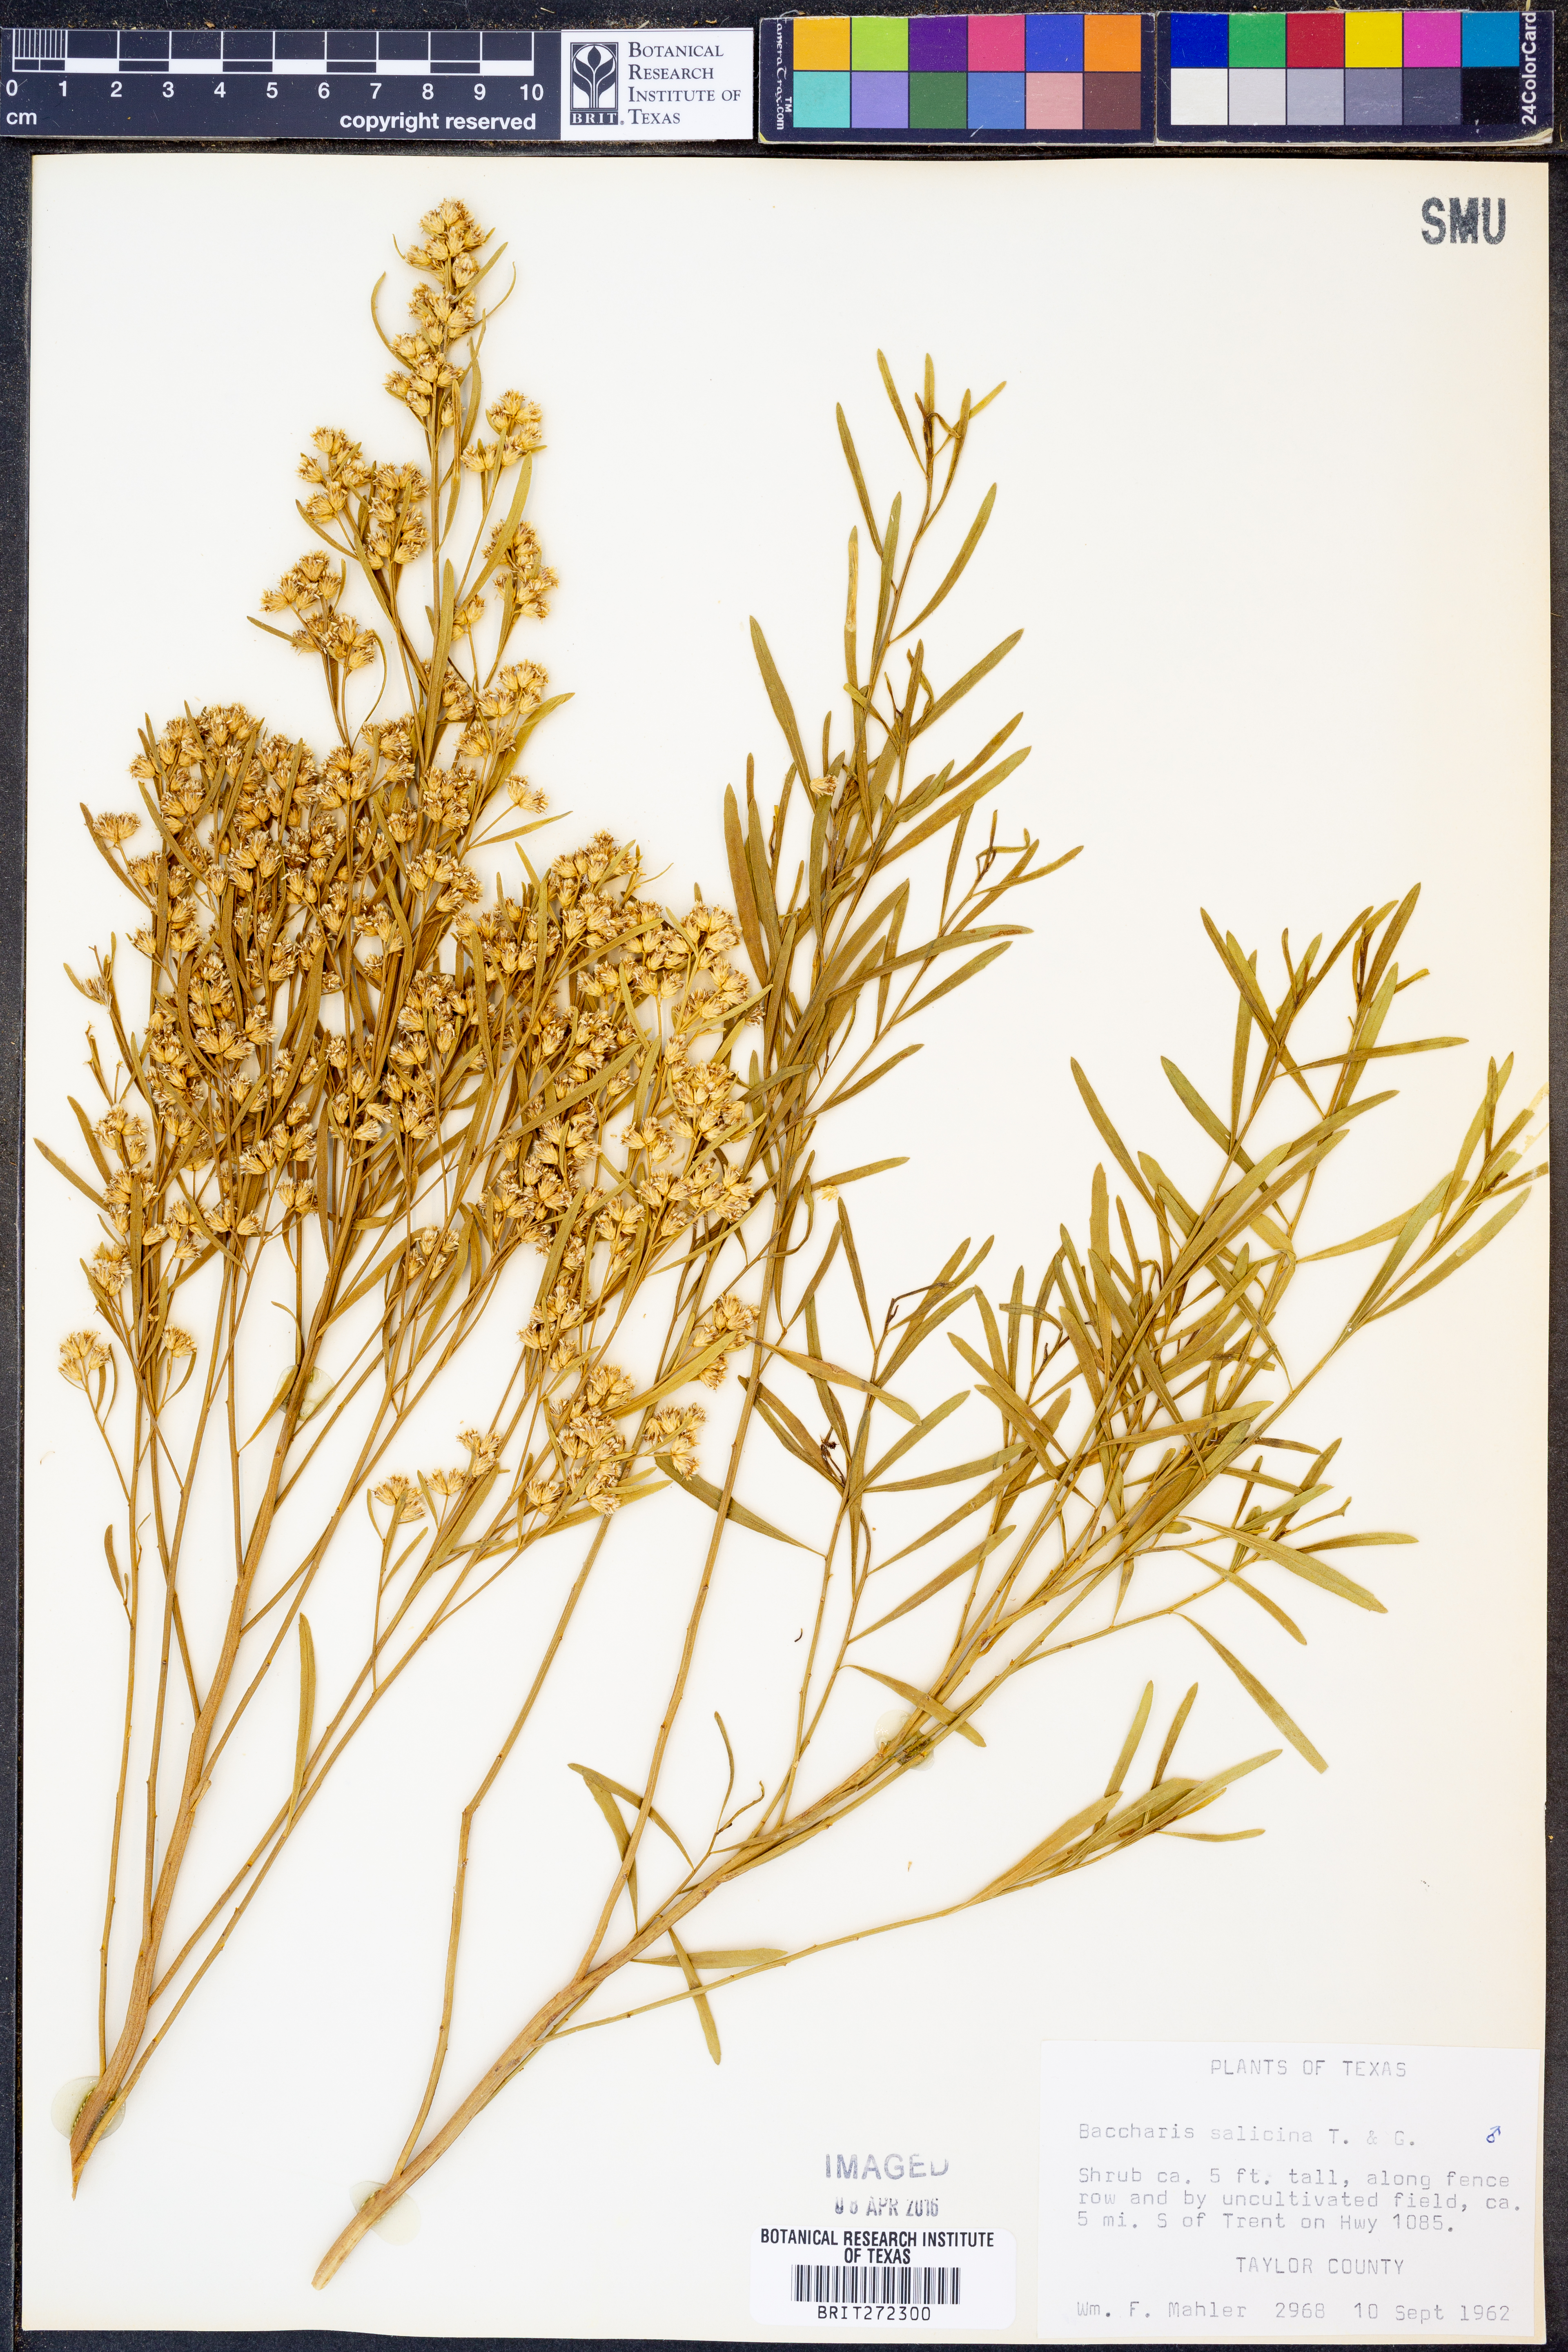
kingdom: Plantae
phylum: Tracheophyta
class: Magnoliopsida
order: Asterales
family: Asteraceae
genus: Baccharis
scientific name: Baccharis salicina
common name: Willow baccharis
